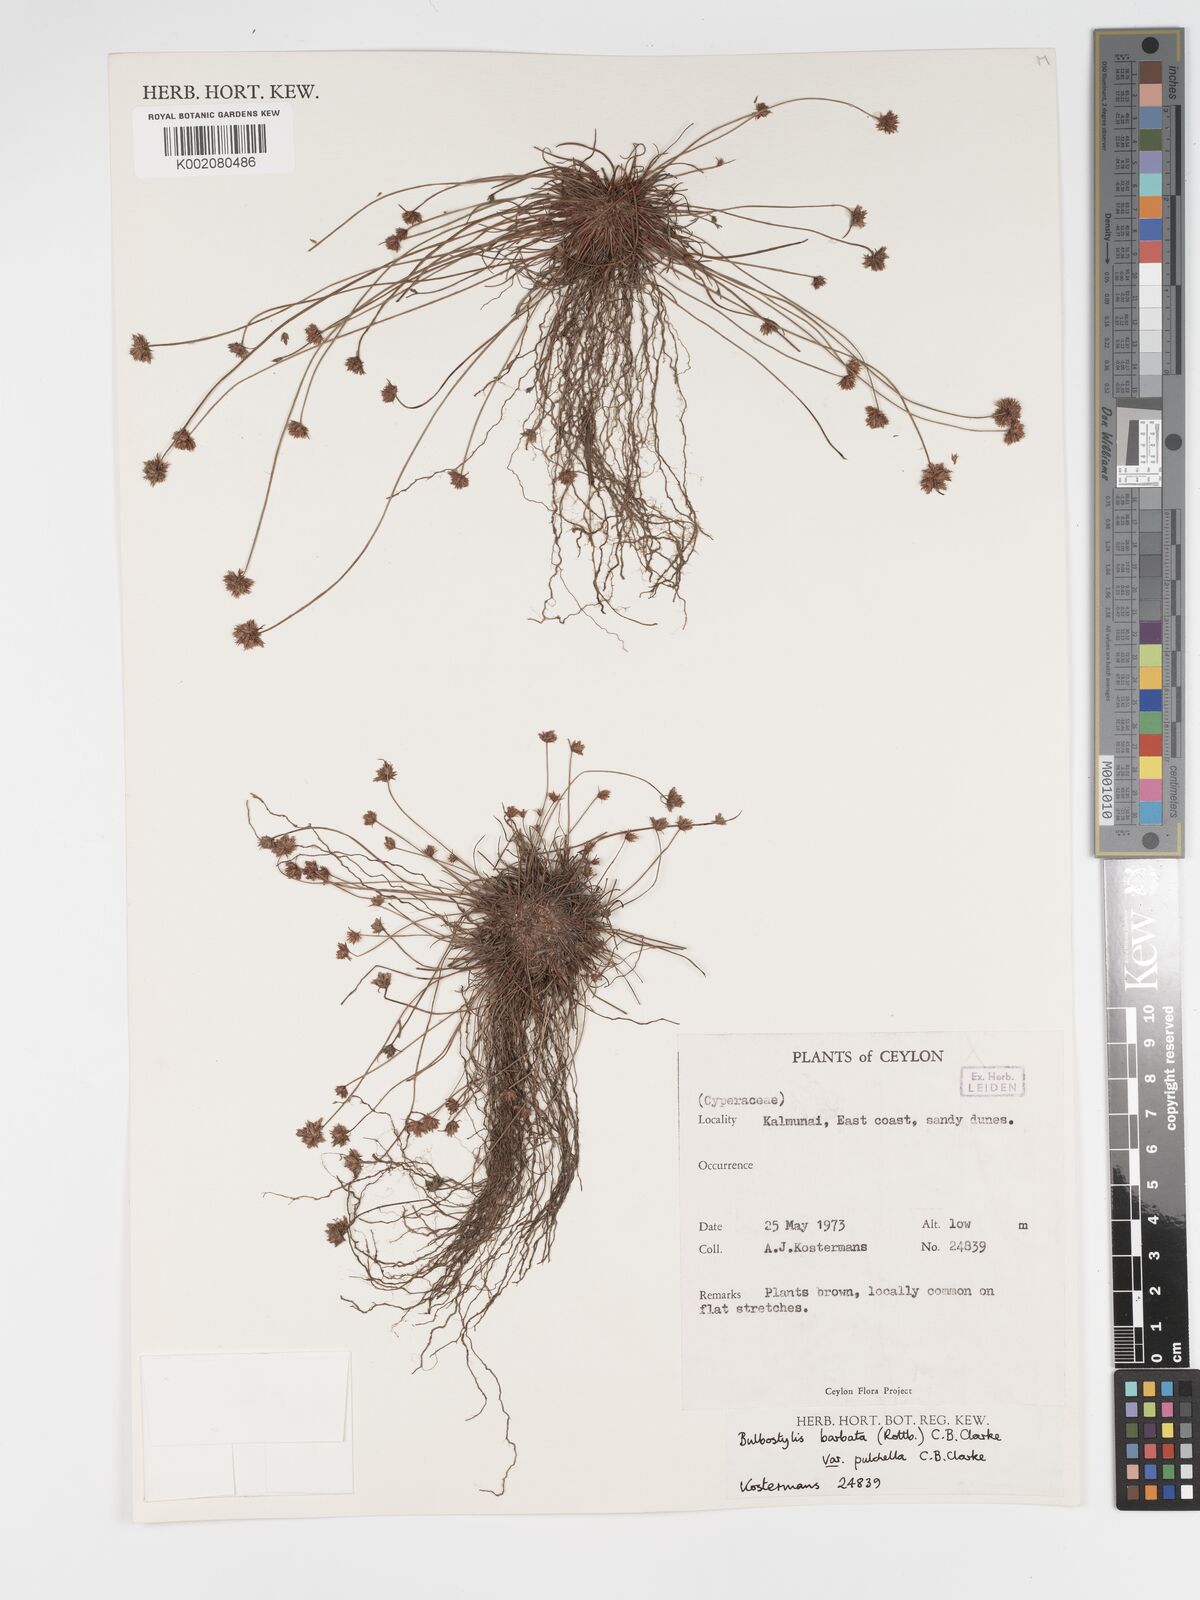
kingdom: Plantae
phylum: Tracheophyta
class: Liliopsida
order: Poales
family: Cyperaceae
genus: Bulbostylis
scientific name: Bulbostylis barbata
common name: Watergrass
